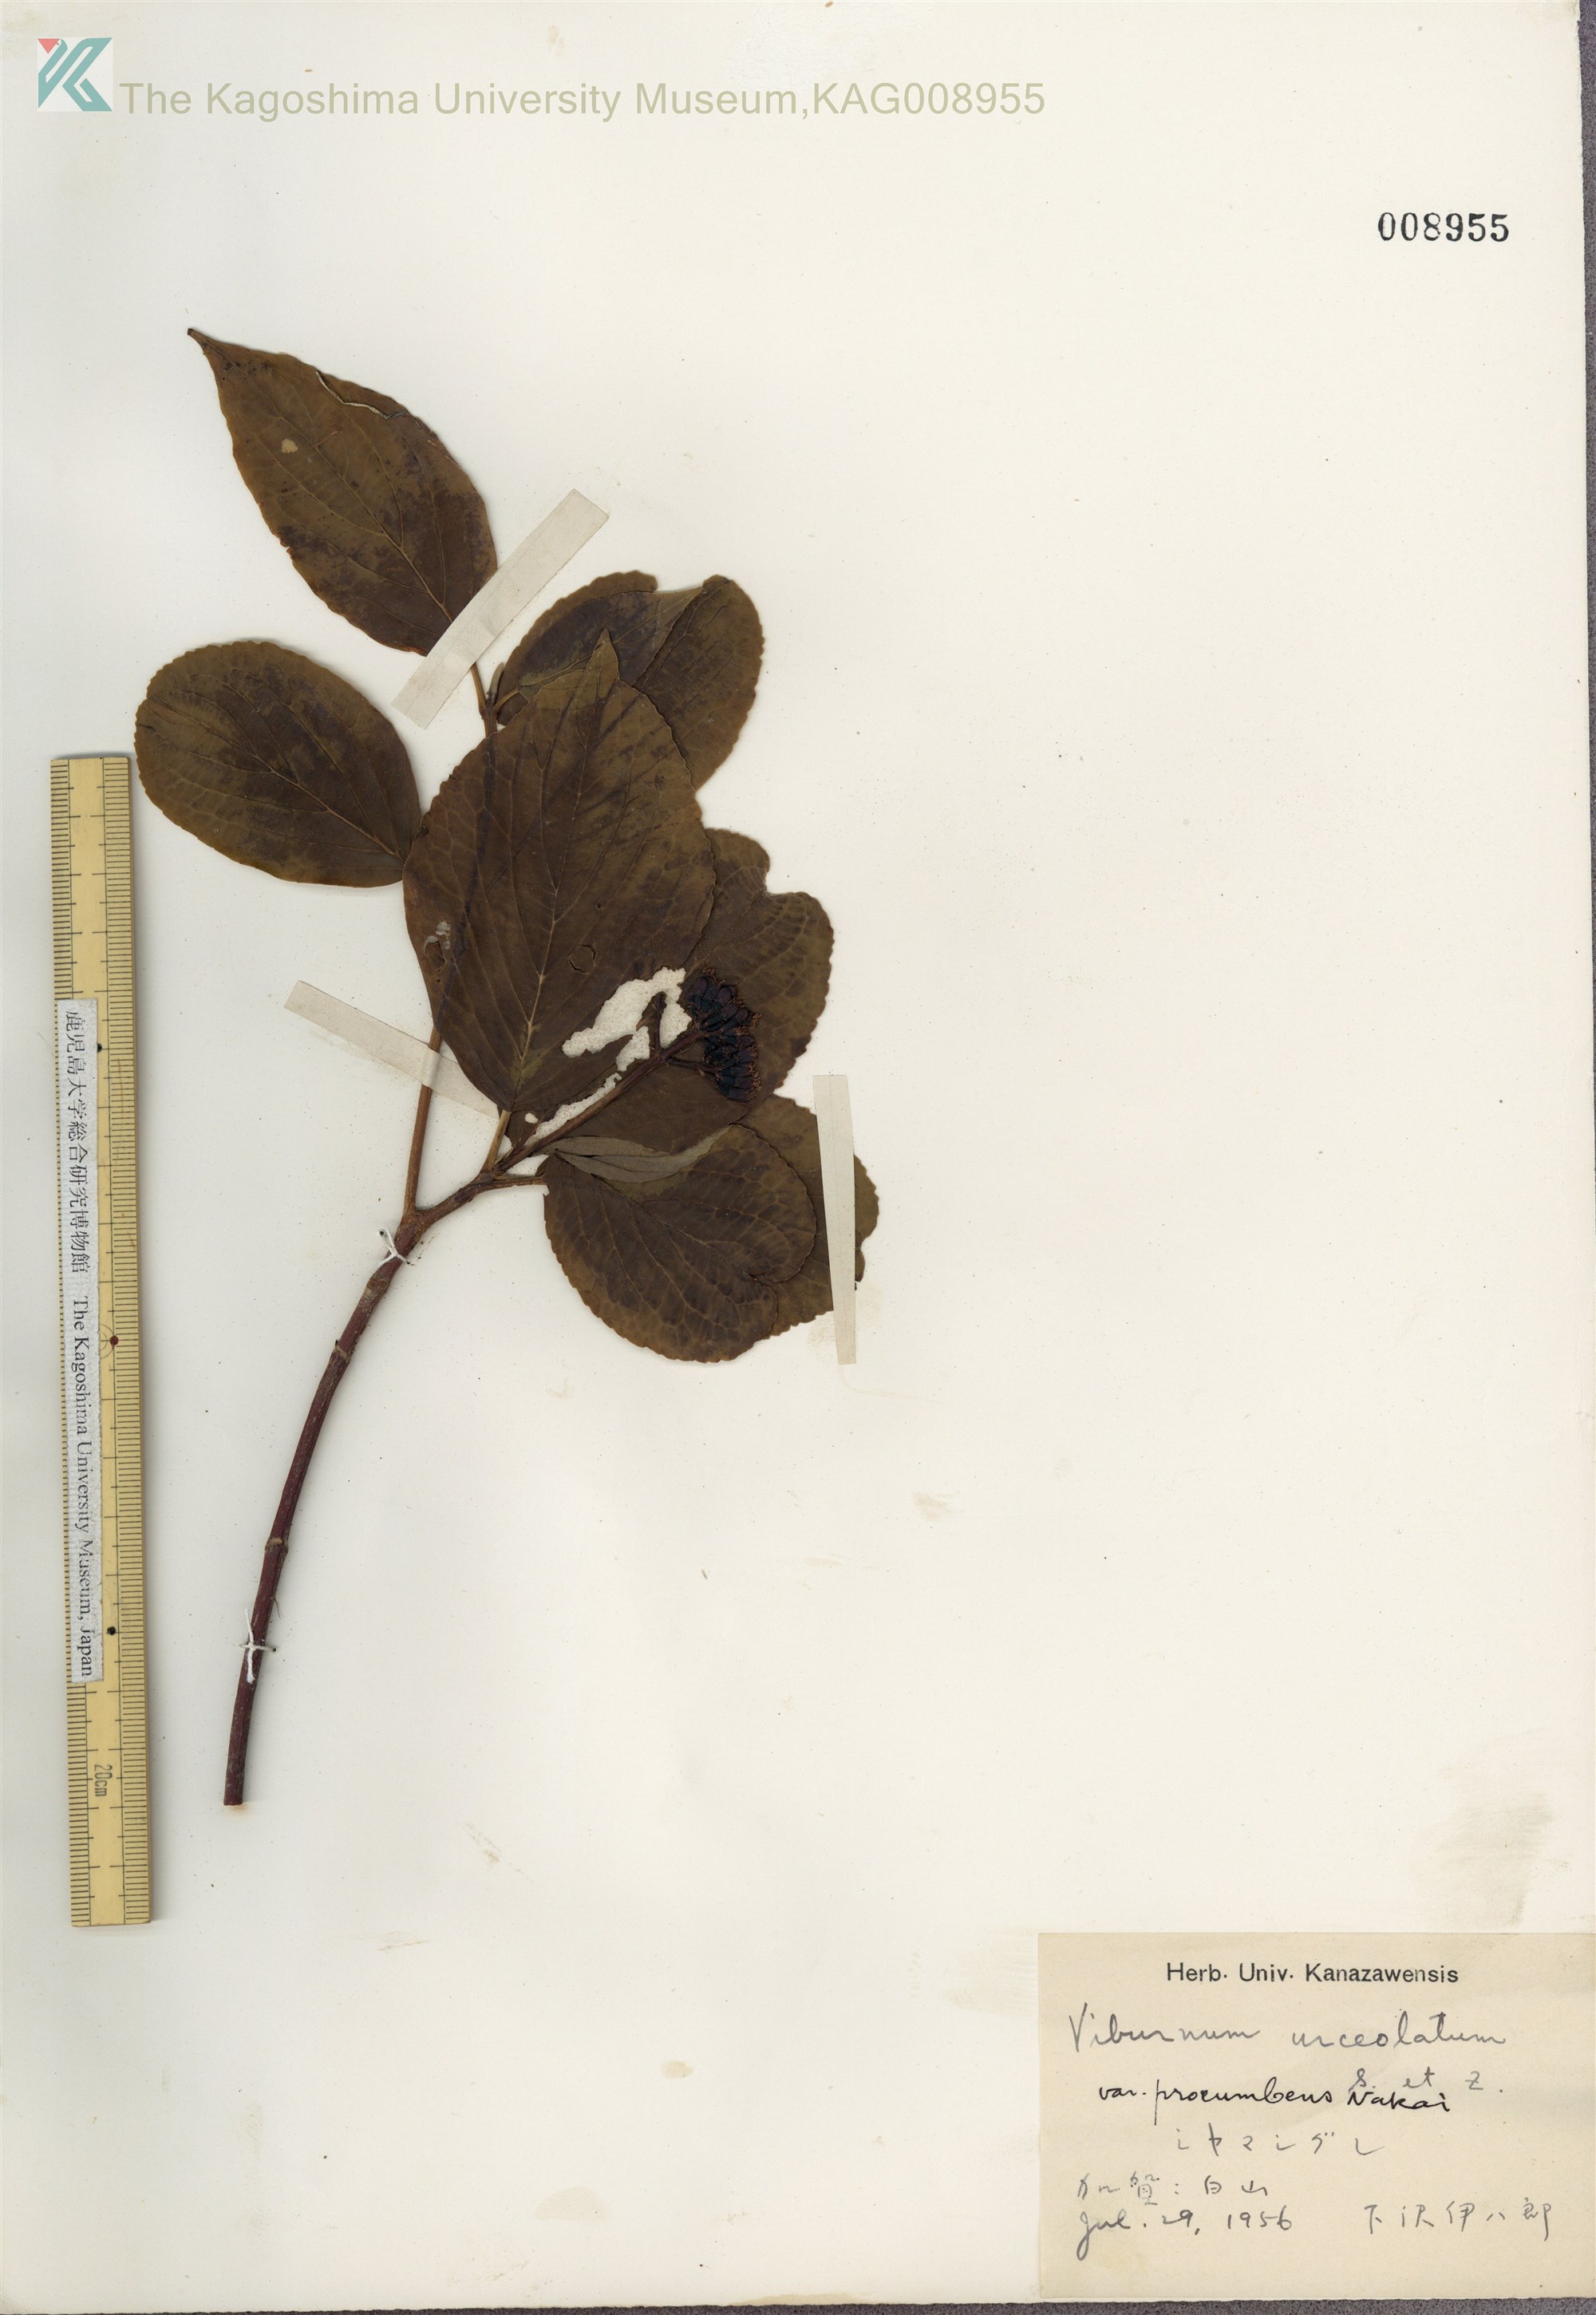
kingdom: Plantae
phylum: Tracheophyta
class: Magnoliopsida
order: Dipsacales
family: Viburnaceae
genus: Viburnum
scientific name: Viburnum urceolatum
